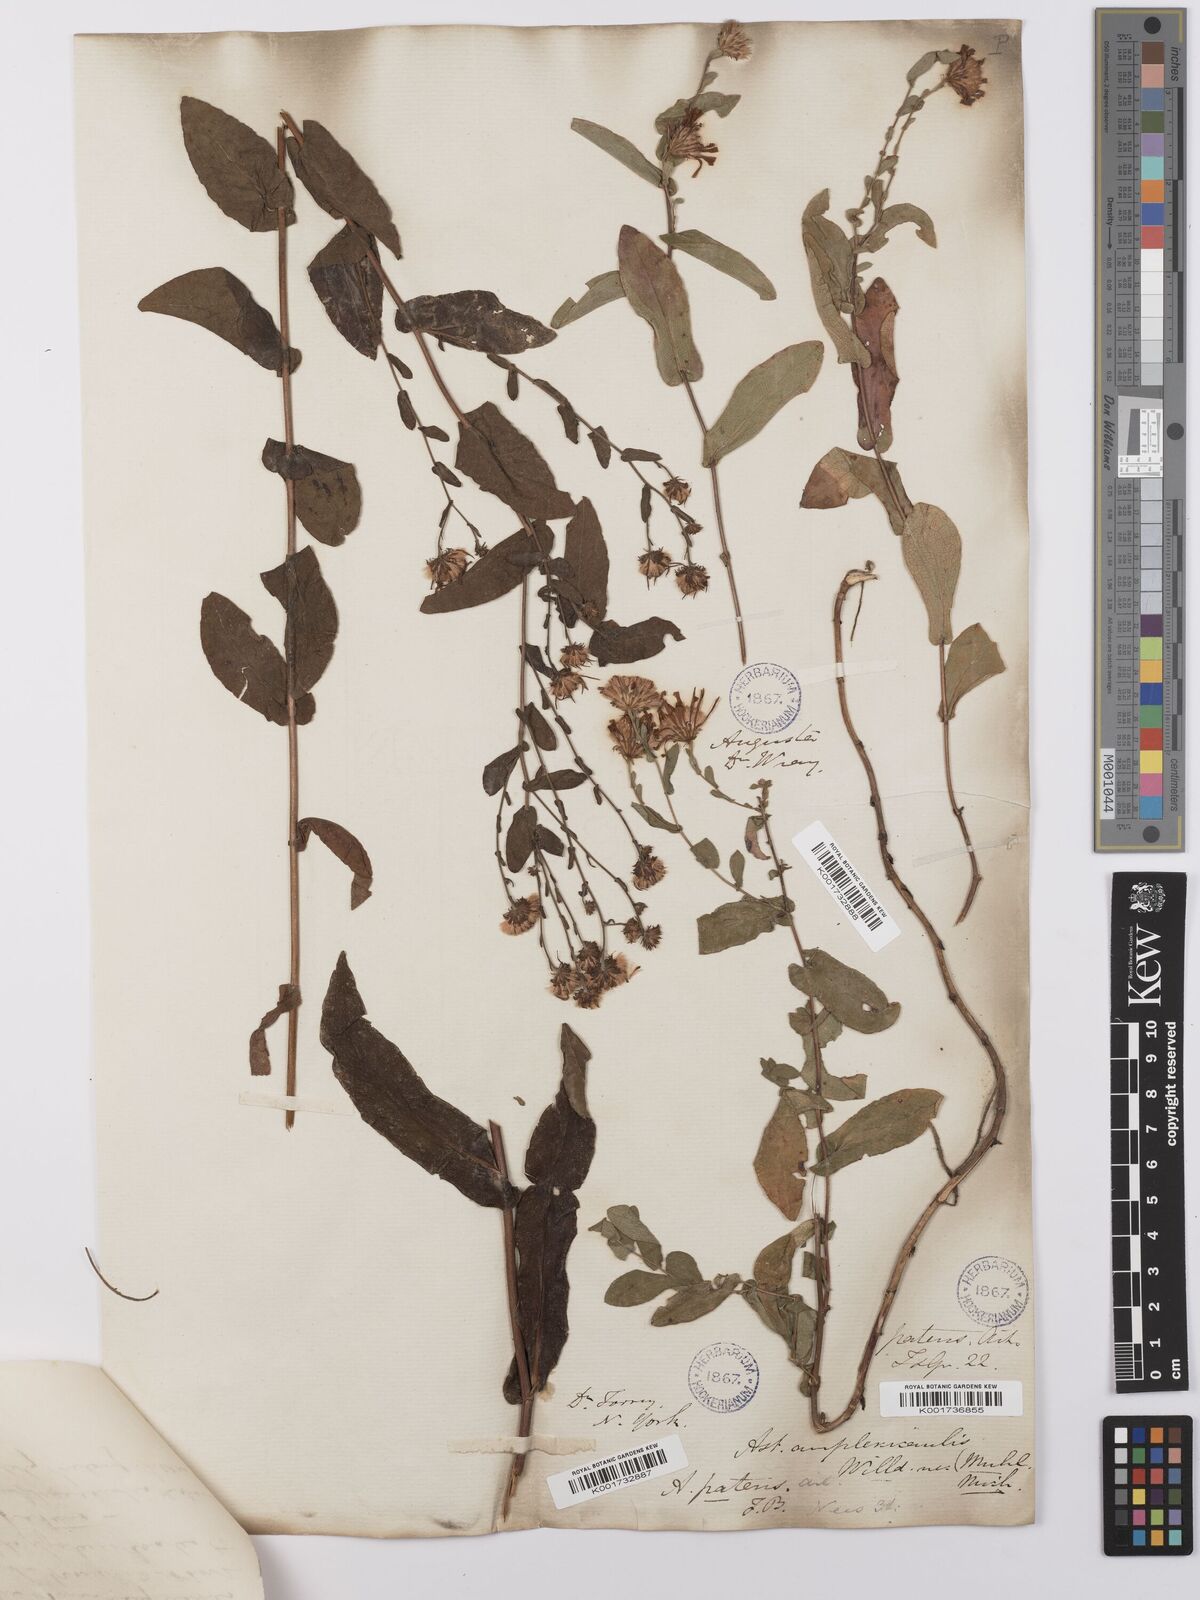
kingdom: Plantae
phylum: Tracheophyta
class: Magnoliopsida
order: Asterales
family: Asteraceae
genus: Symphyotrichum
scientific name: Symphyotrichum patens
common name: Late purple aster
